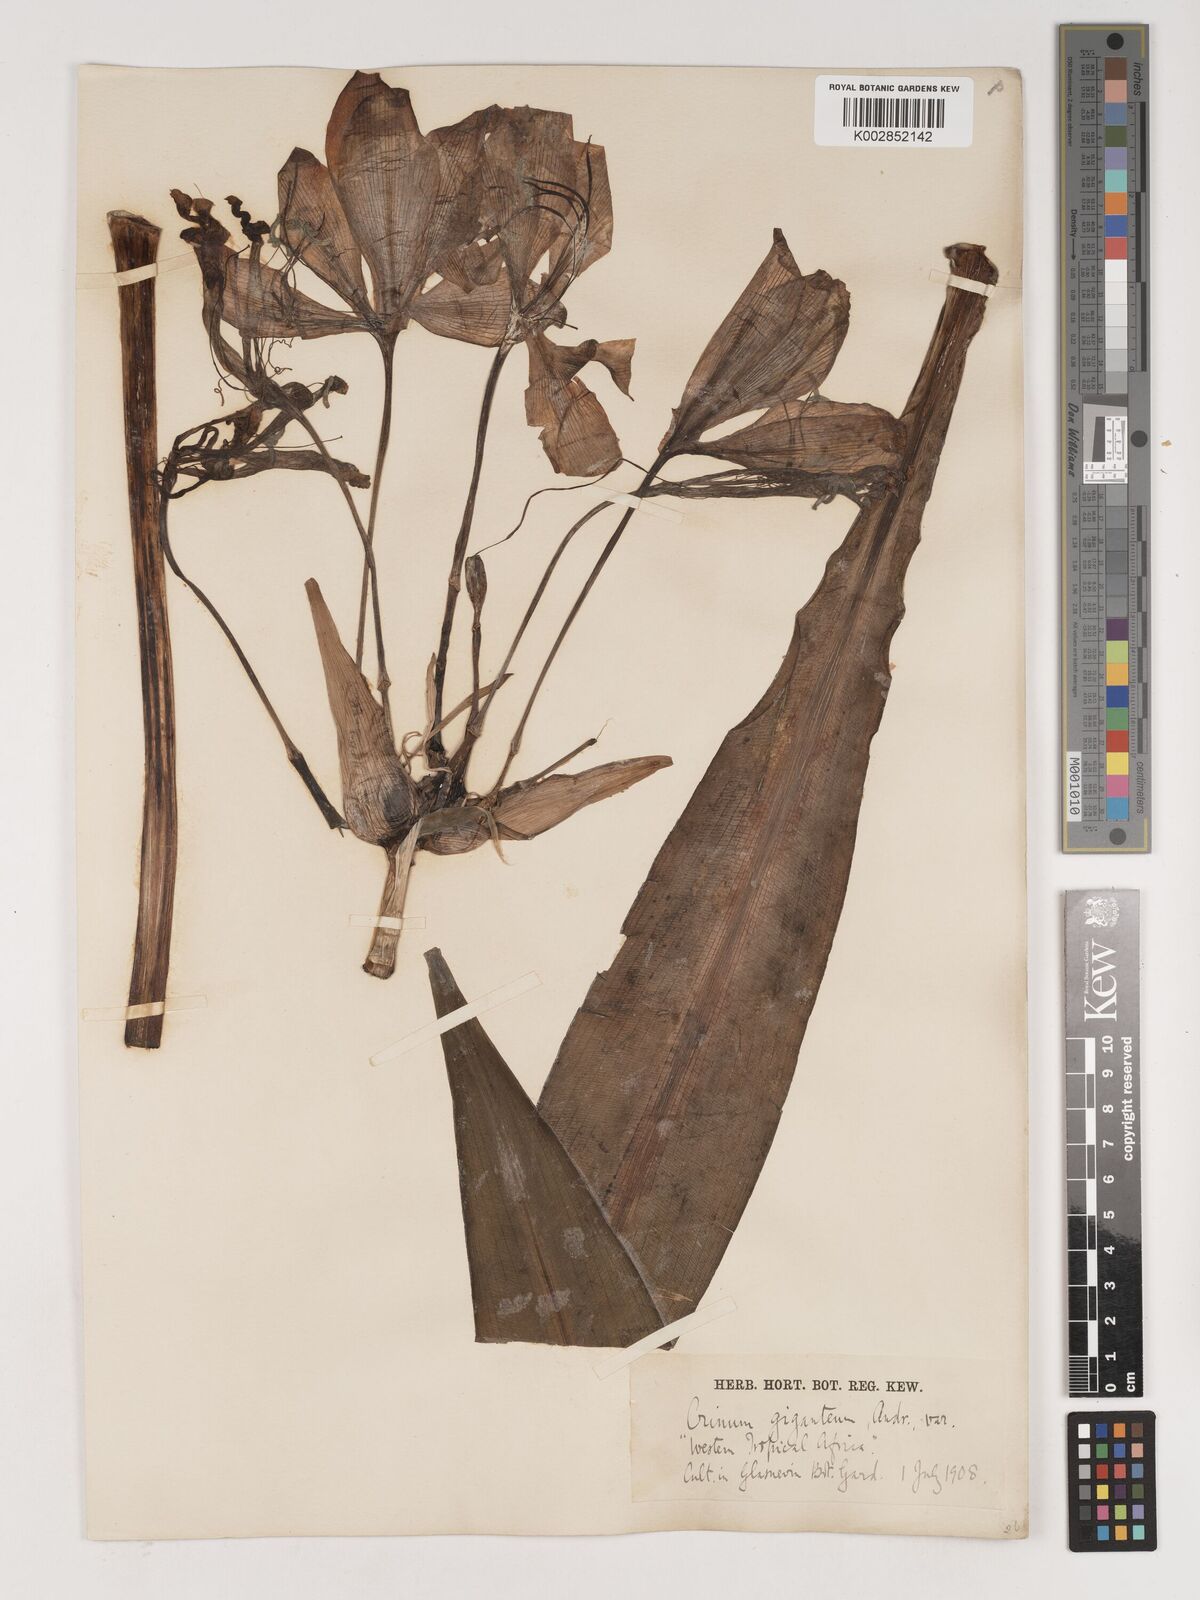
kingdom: Plantae
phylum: Tracheophyta
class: Liliopsida
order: Asparagales
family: Amaryllidaceae
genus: Crinum
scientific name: Crinum jagus
